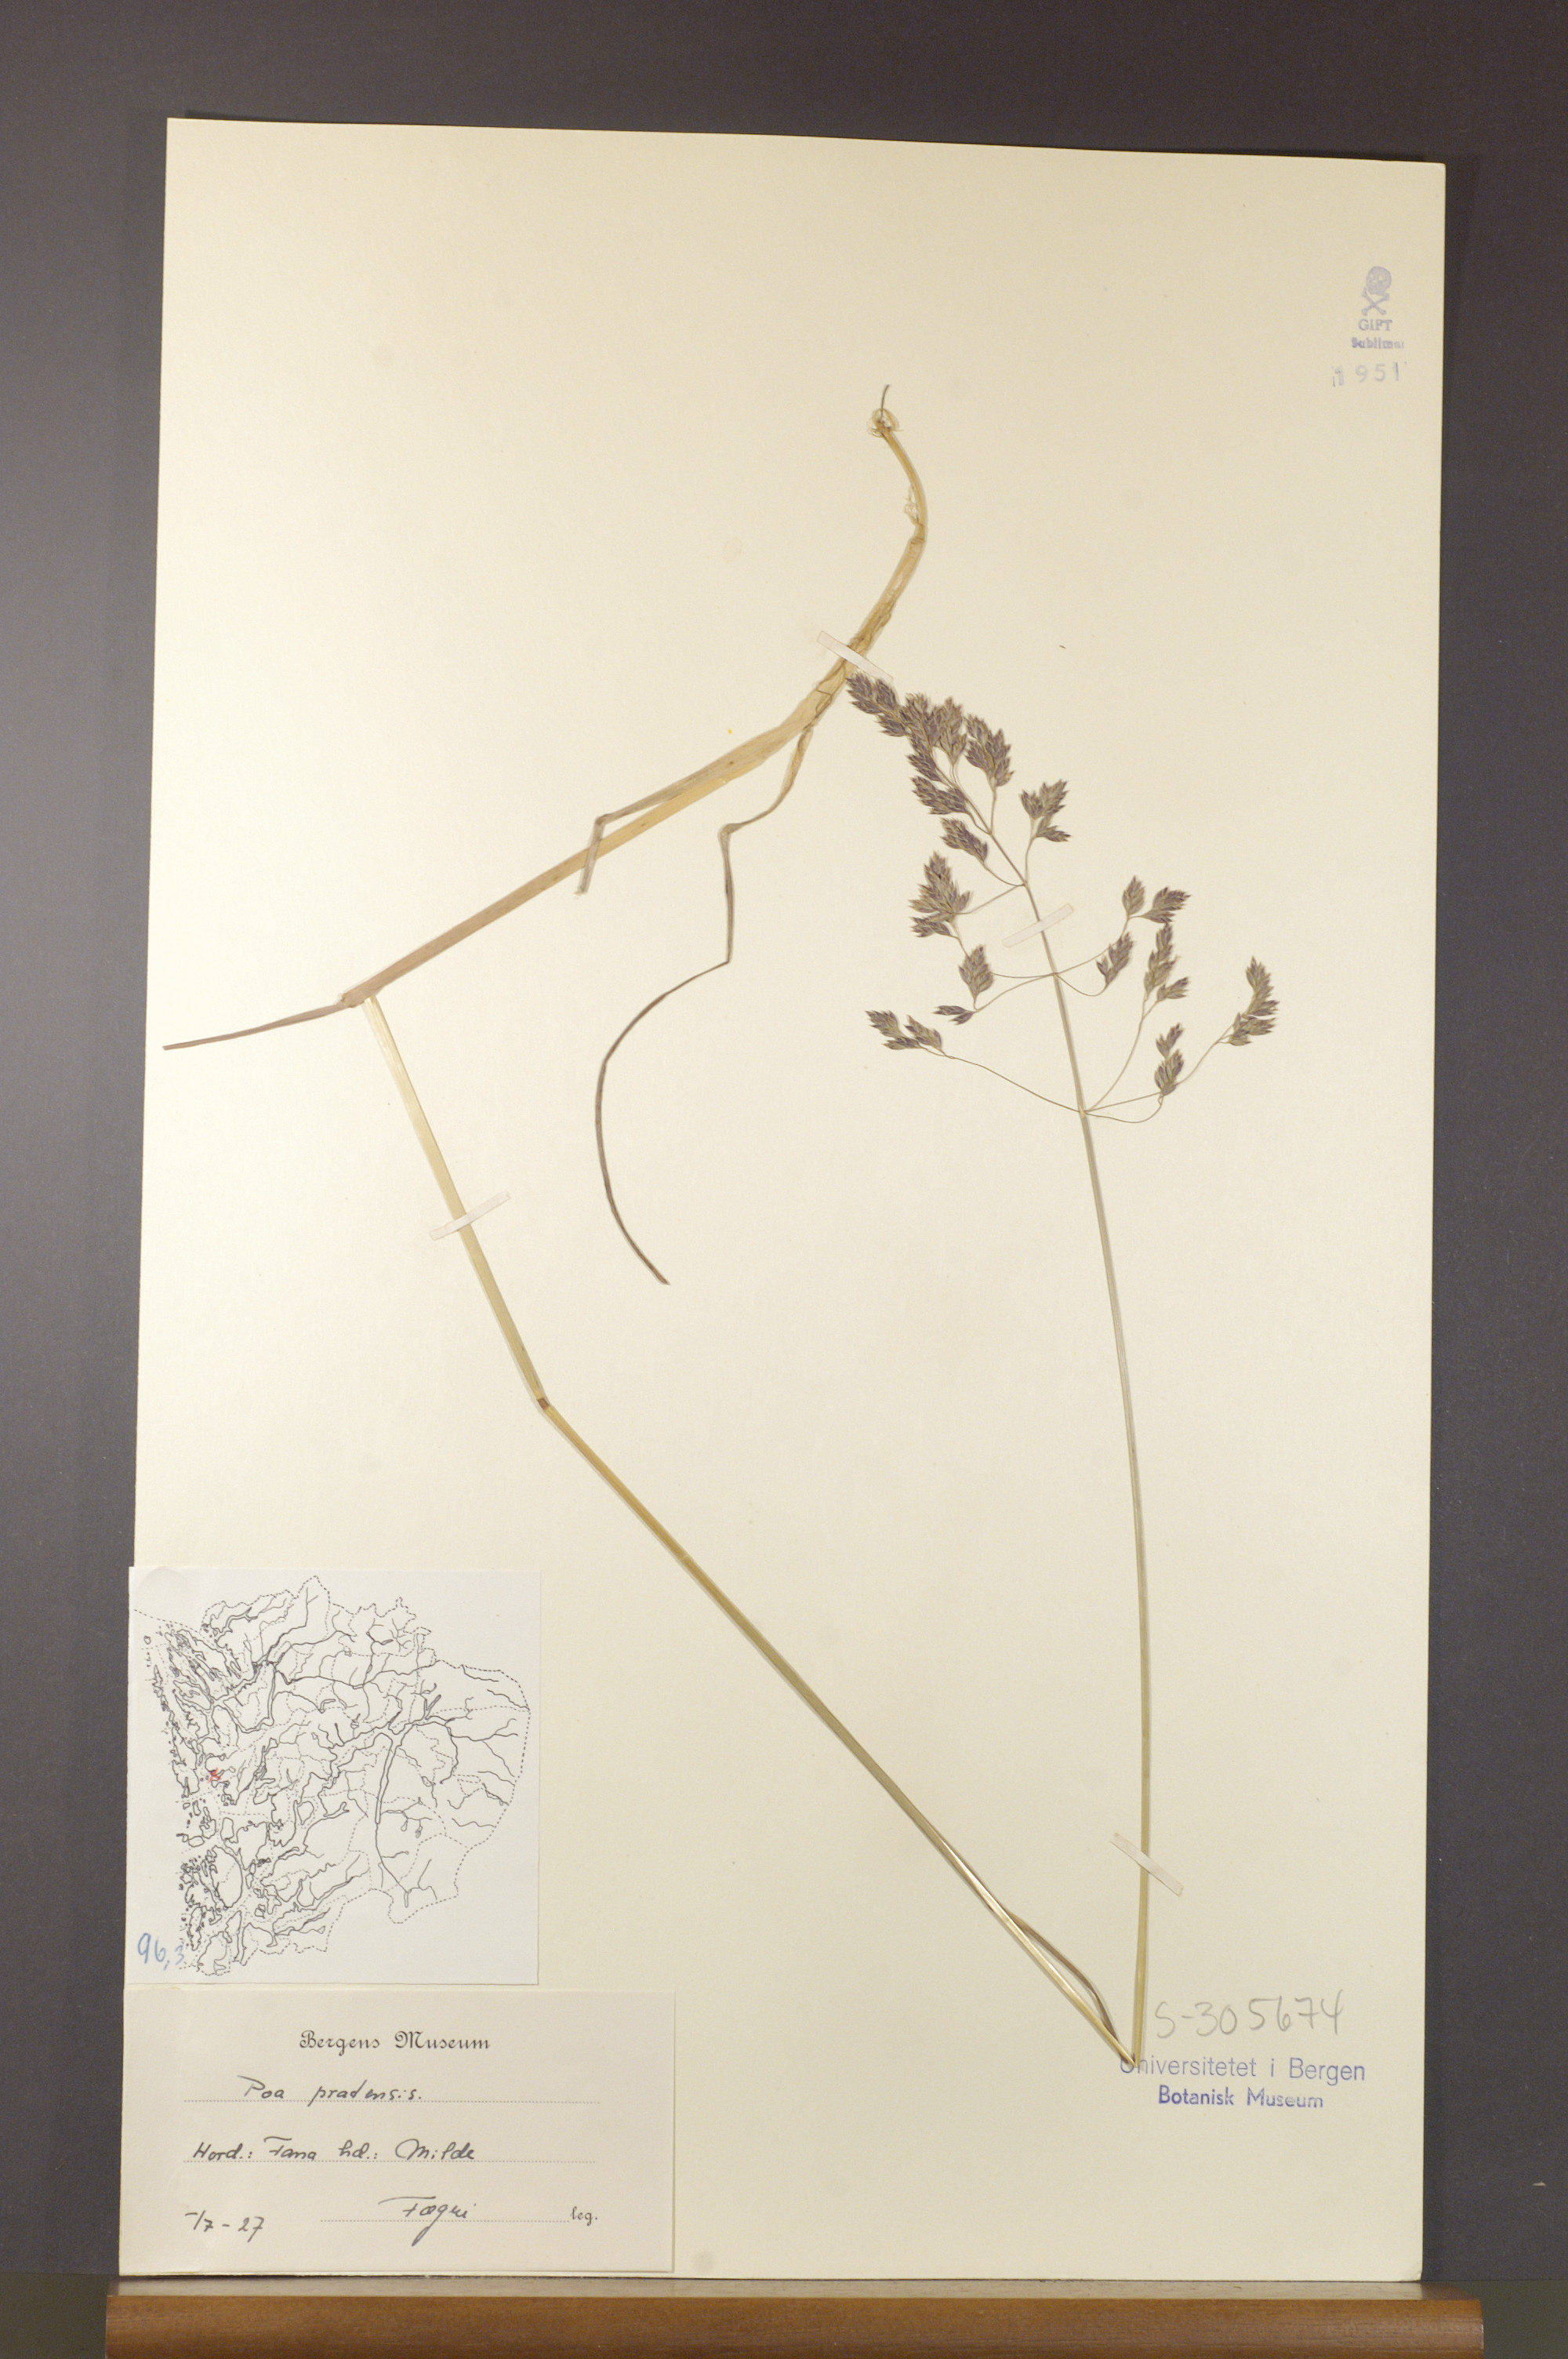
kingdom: Plantae
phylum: Tracheophyta
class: Liliopsida
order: Poales
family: Poaceae
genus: Poa
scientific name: Poa pratensis
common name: Kentucky bluegrass
